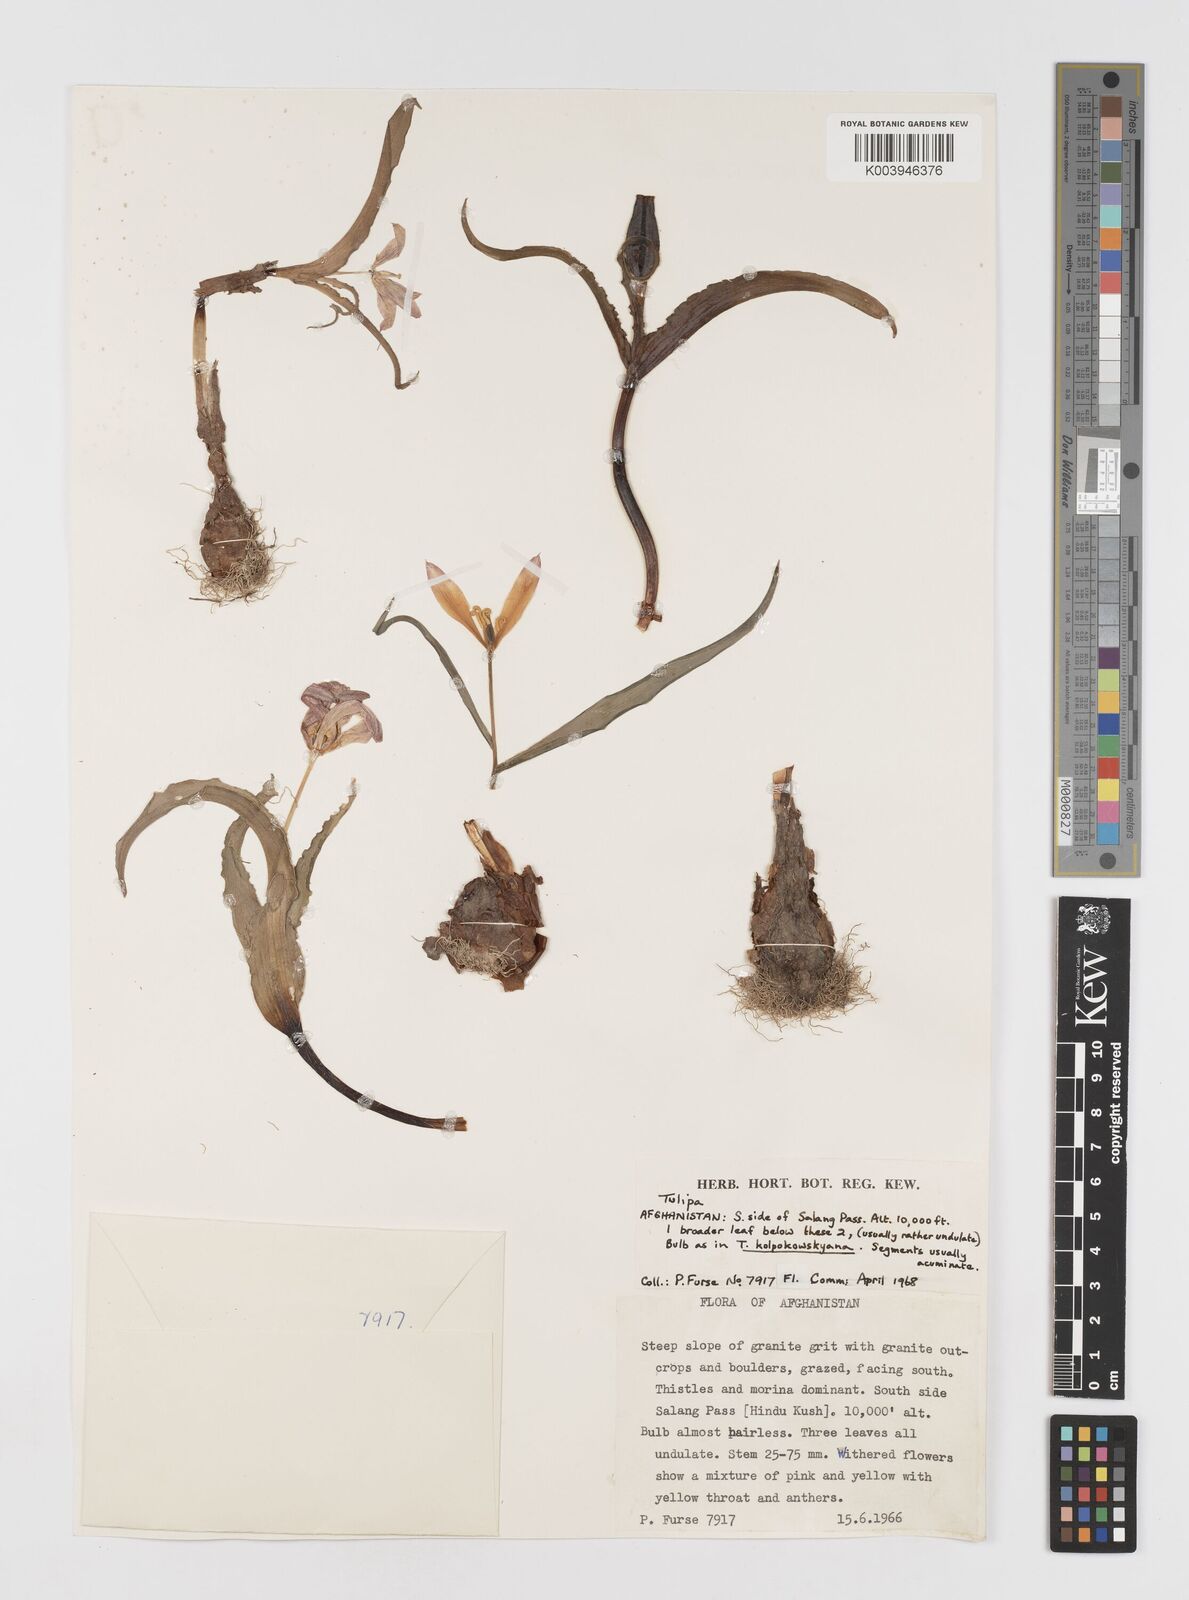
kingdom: Plantae
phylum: Tracheophyta
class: Liliopsida
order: Liliales
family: Liliaceae
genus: Tulipa
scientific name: Tulipa kolpakowskiana
